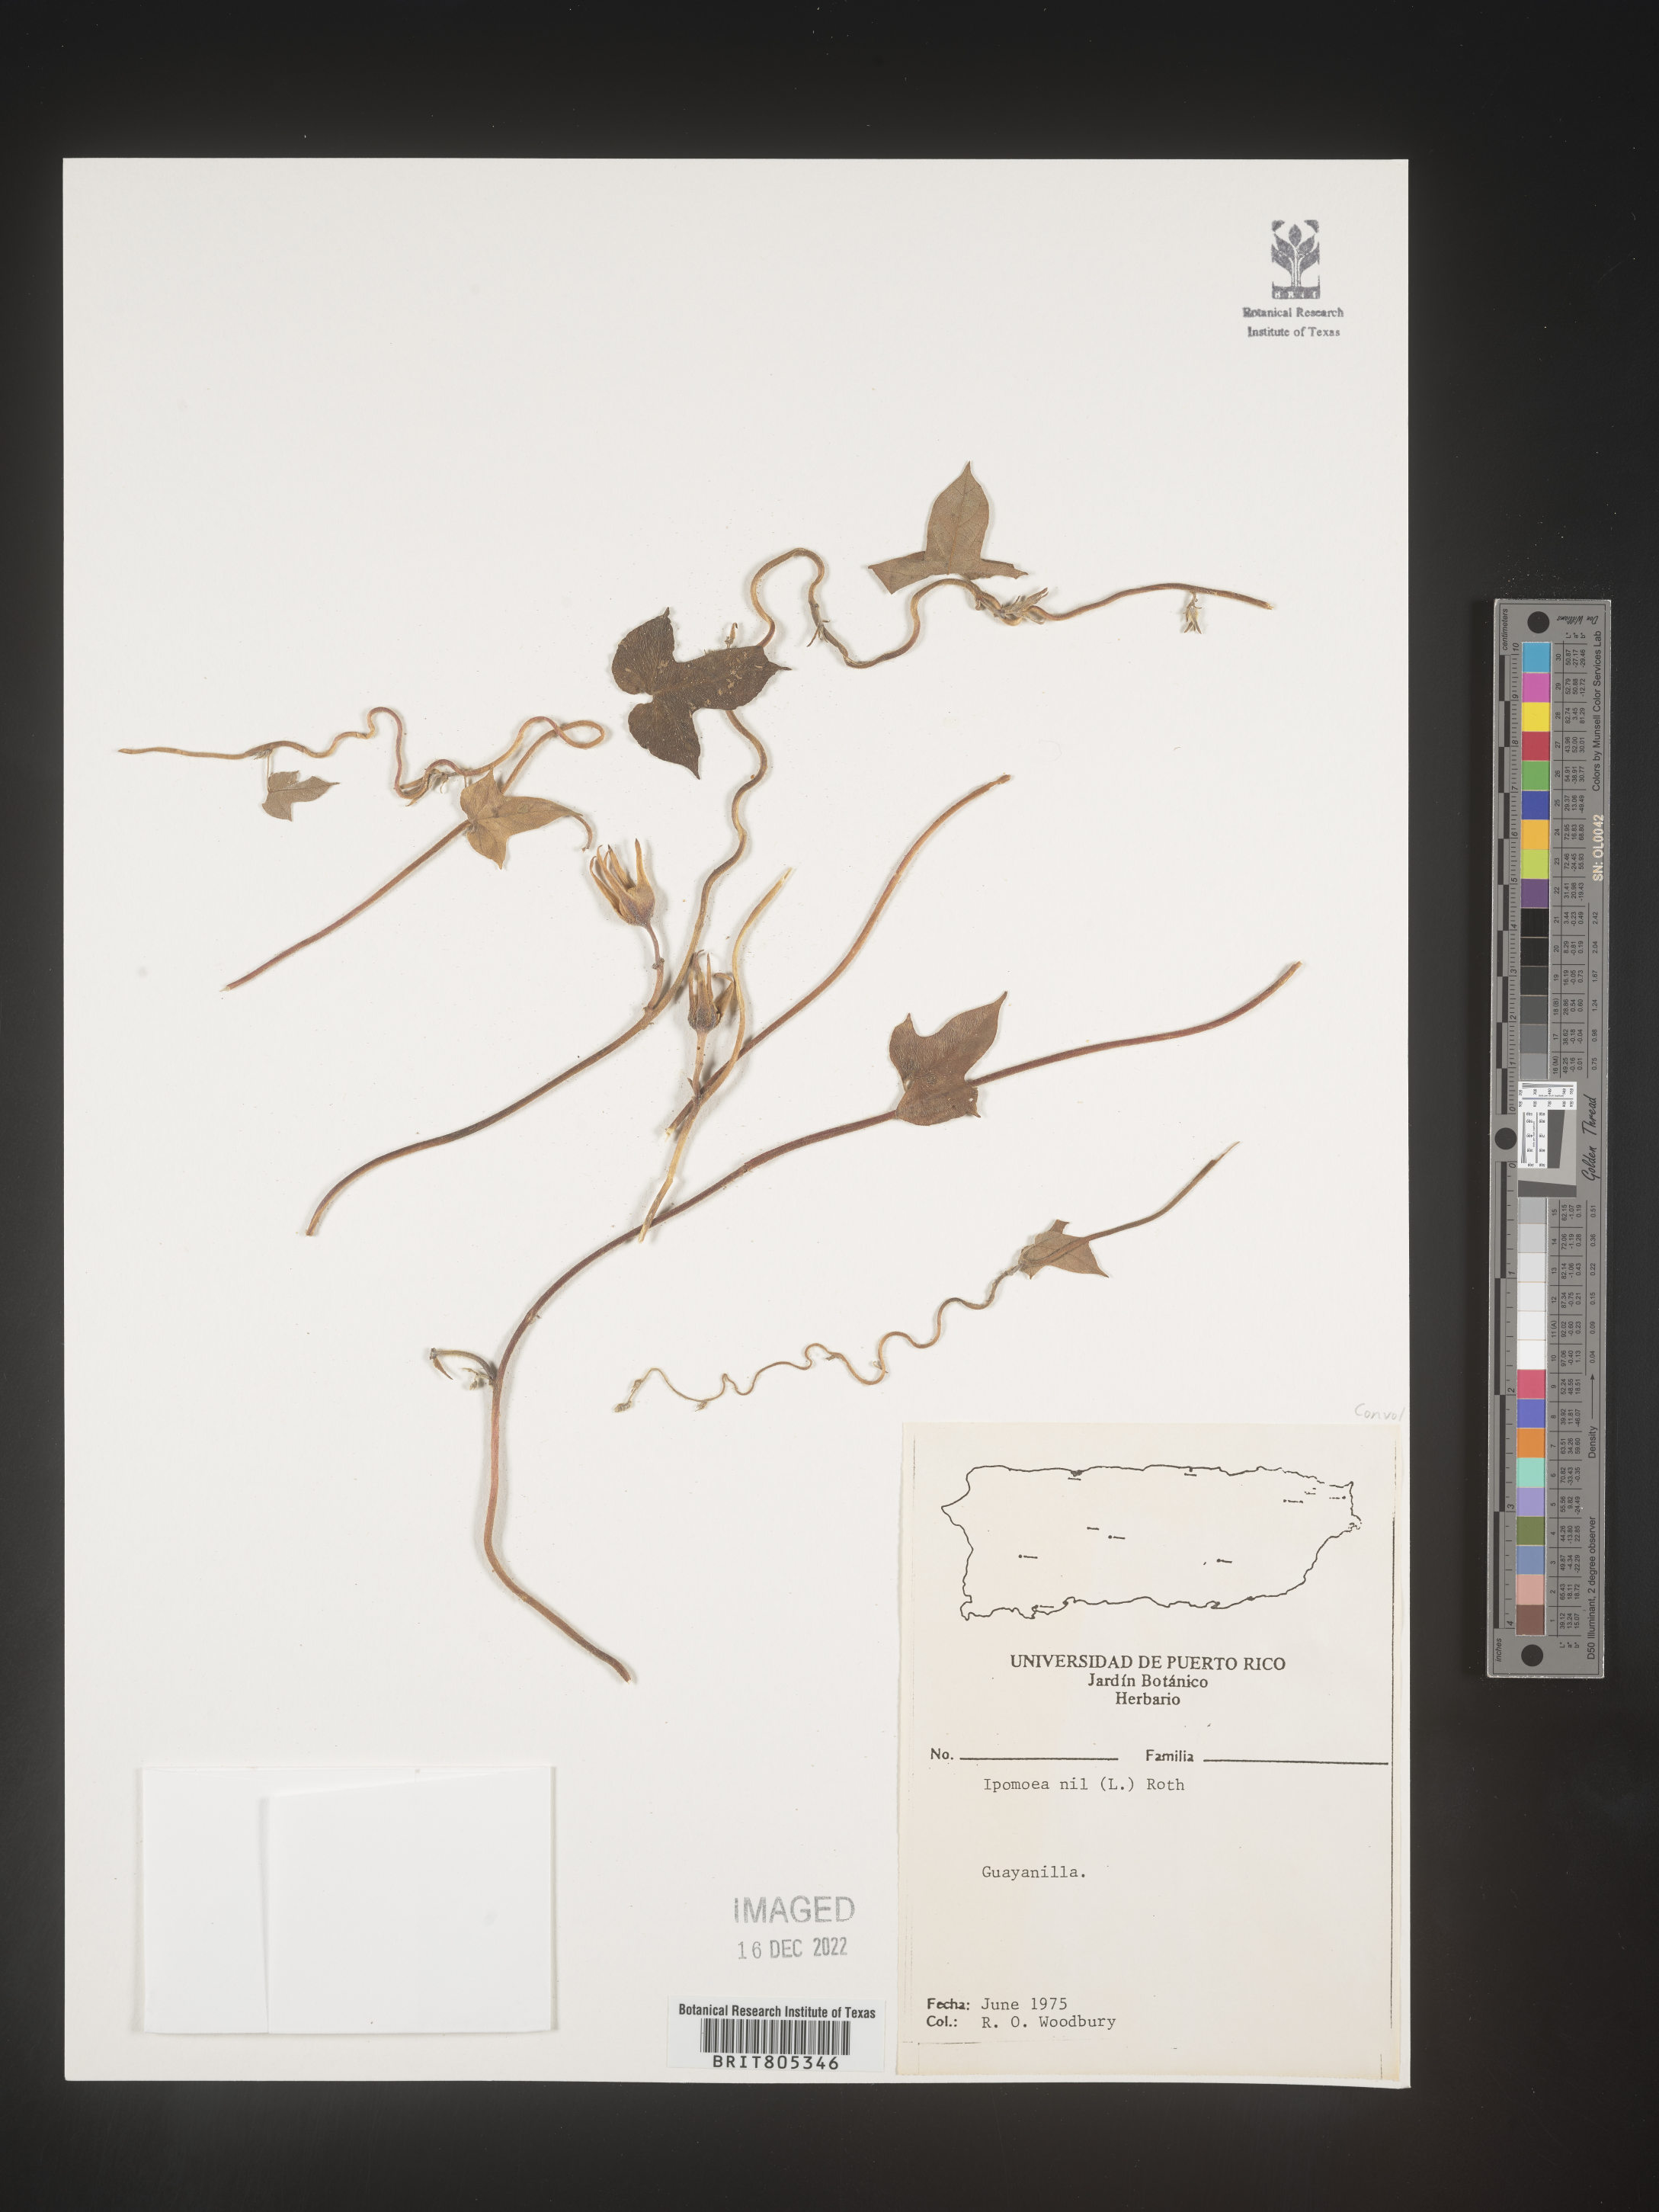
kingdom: Plantae
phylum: Tracheophyta
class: Magnoliopsida
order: Solanales
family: Convolvulaceae
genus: Ipomoea
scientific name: Ipomoea
